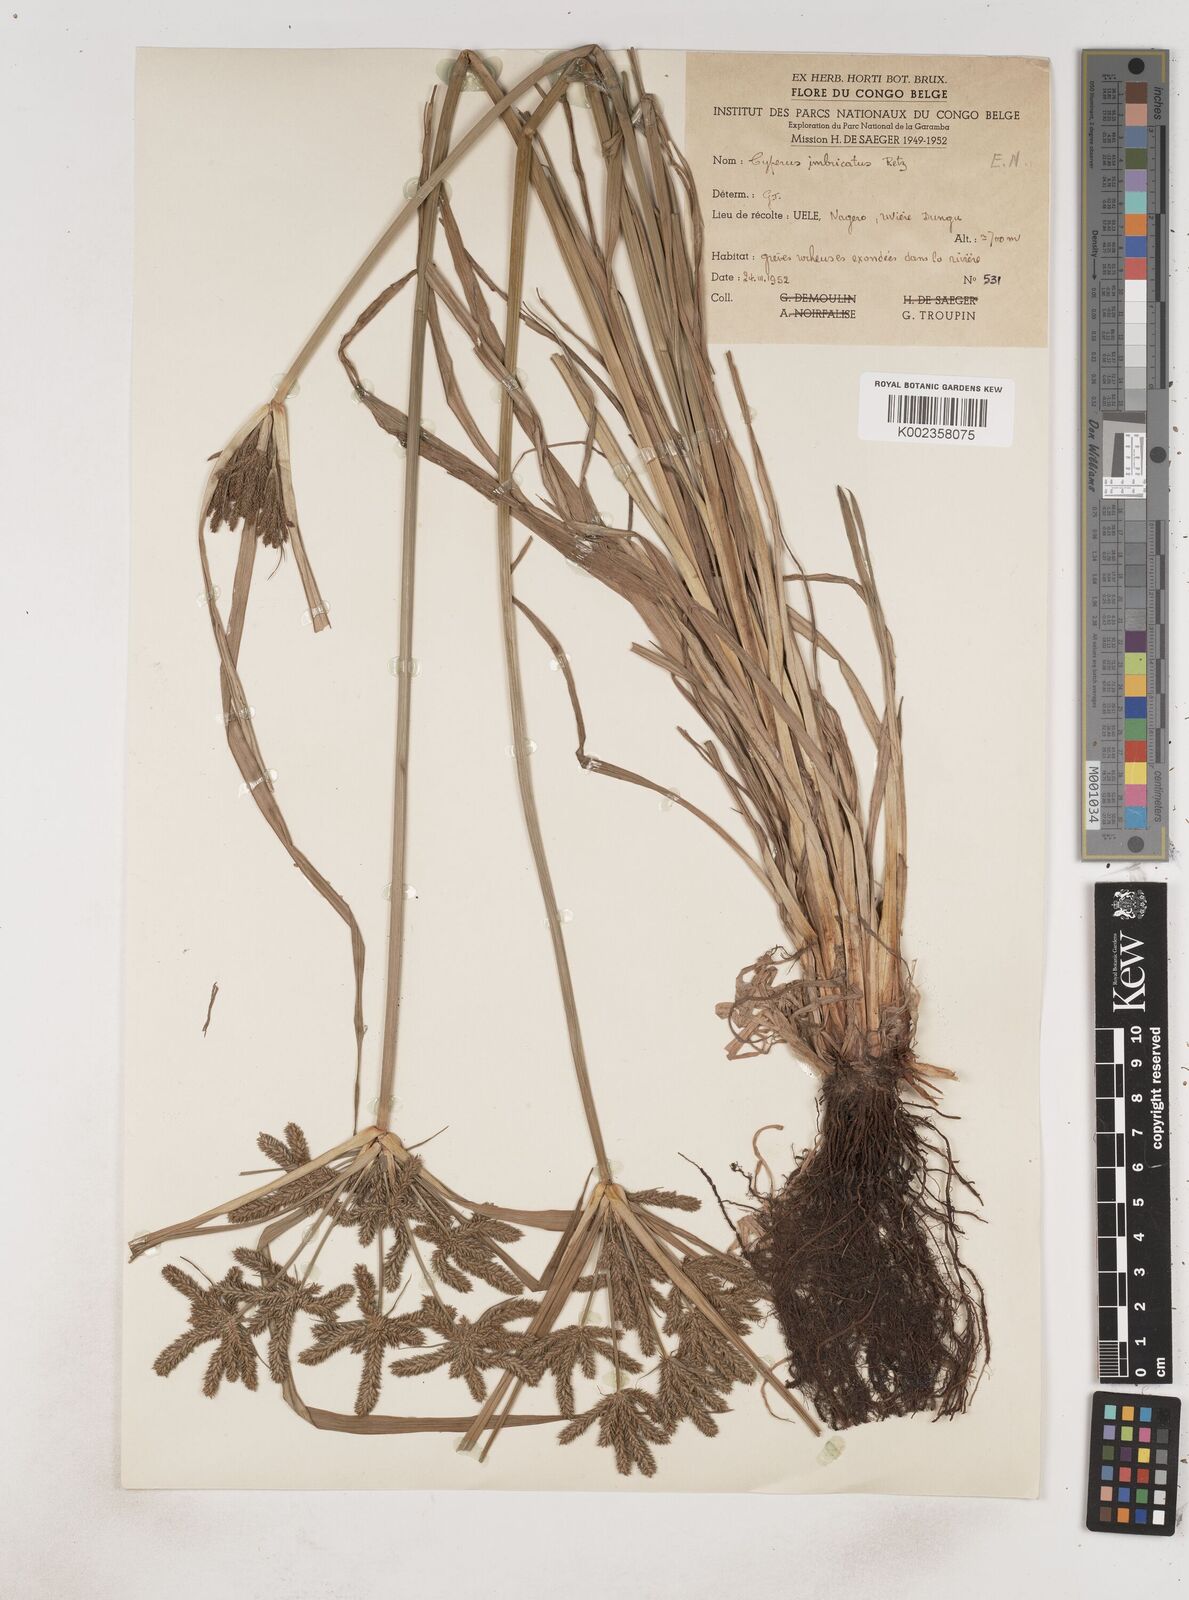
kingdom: Plantae
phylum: Tracheophyta
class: Liliopsida
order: Poales
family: Cyperaceae
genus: Cyperus
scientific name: Cyperus imbricatus
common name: Shingle flatsedge
